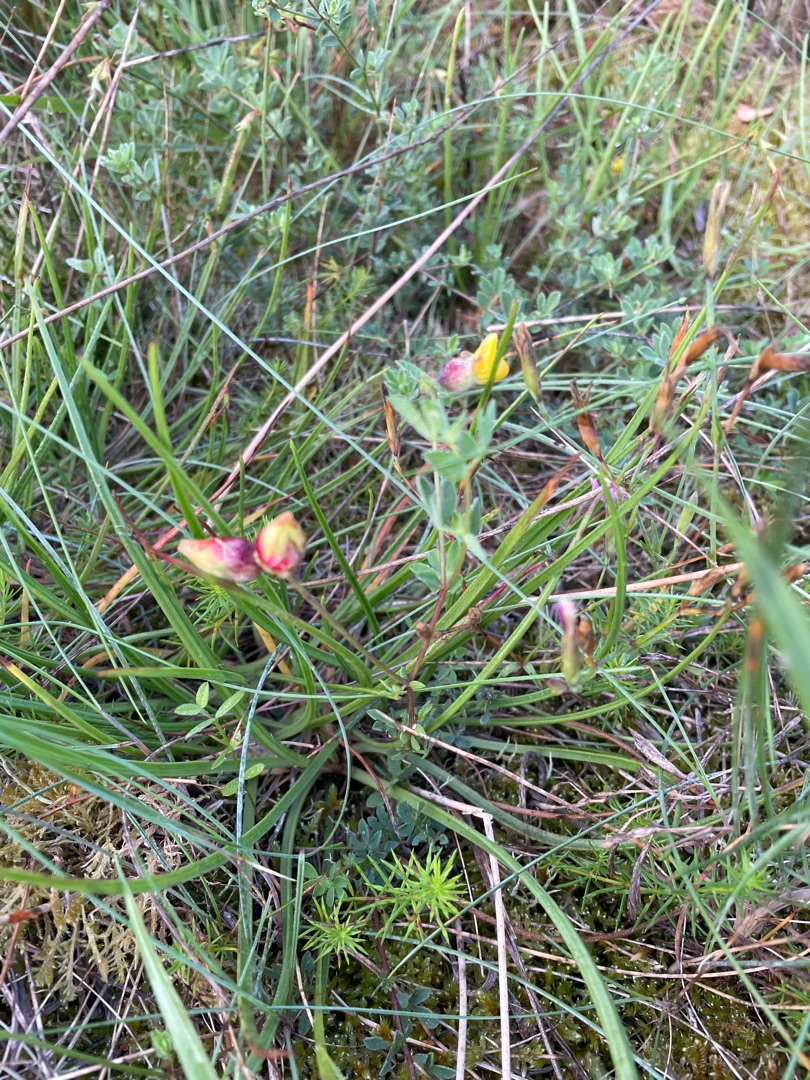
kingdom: Plantae
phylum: Tracheophyta
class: Magnoliopsida
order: Fabales
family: Fabaceae
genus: Lotus
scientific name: Lotus corniculatus
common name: Almindelig kællingetand
